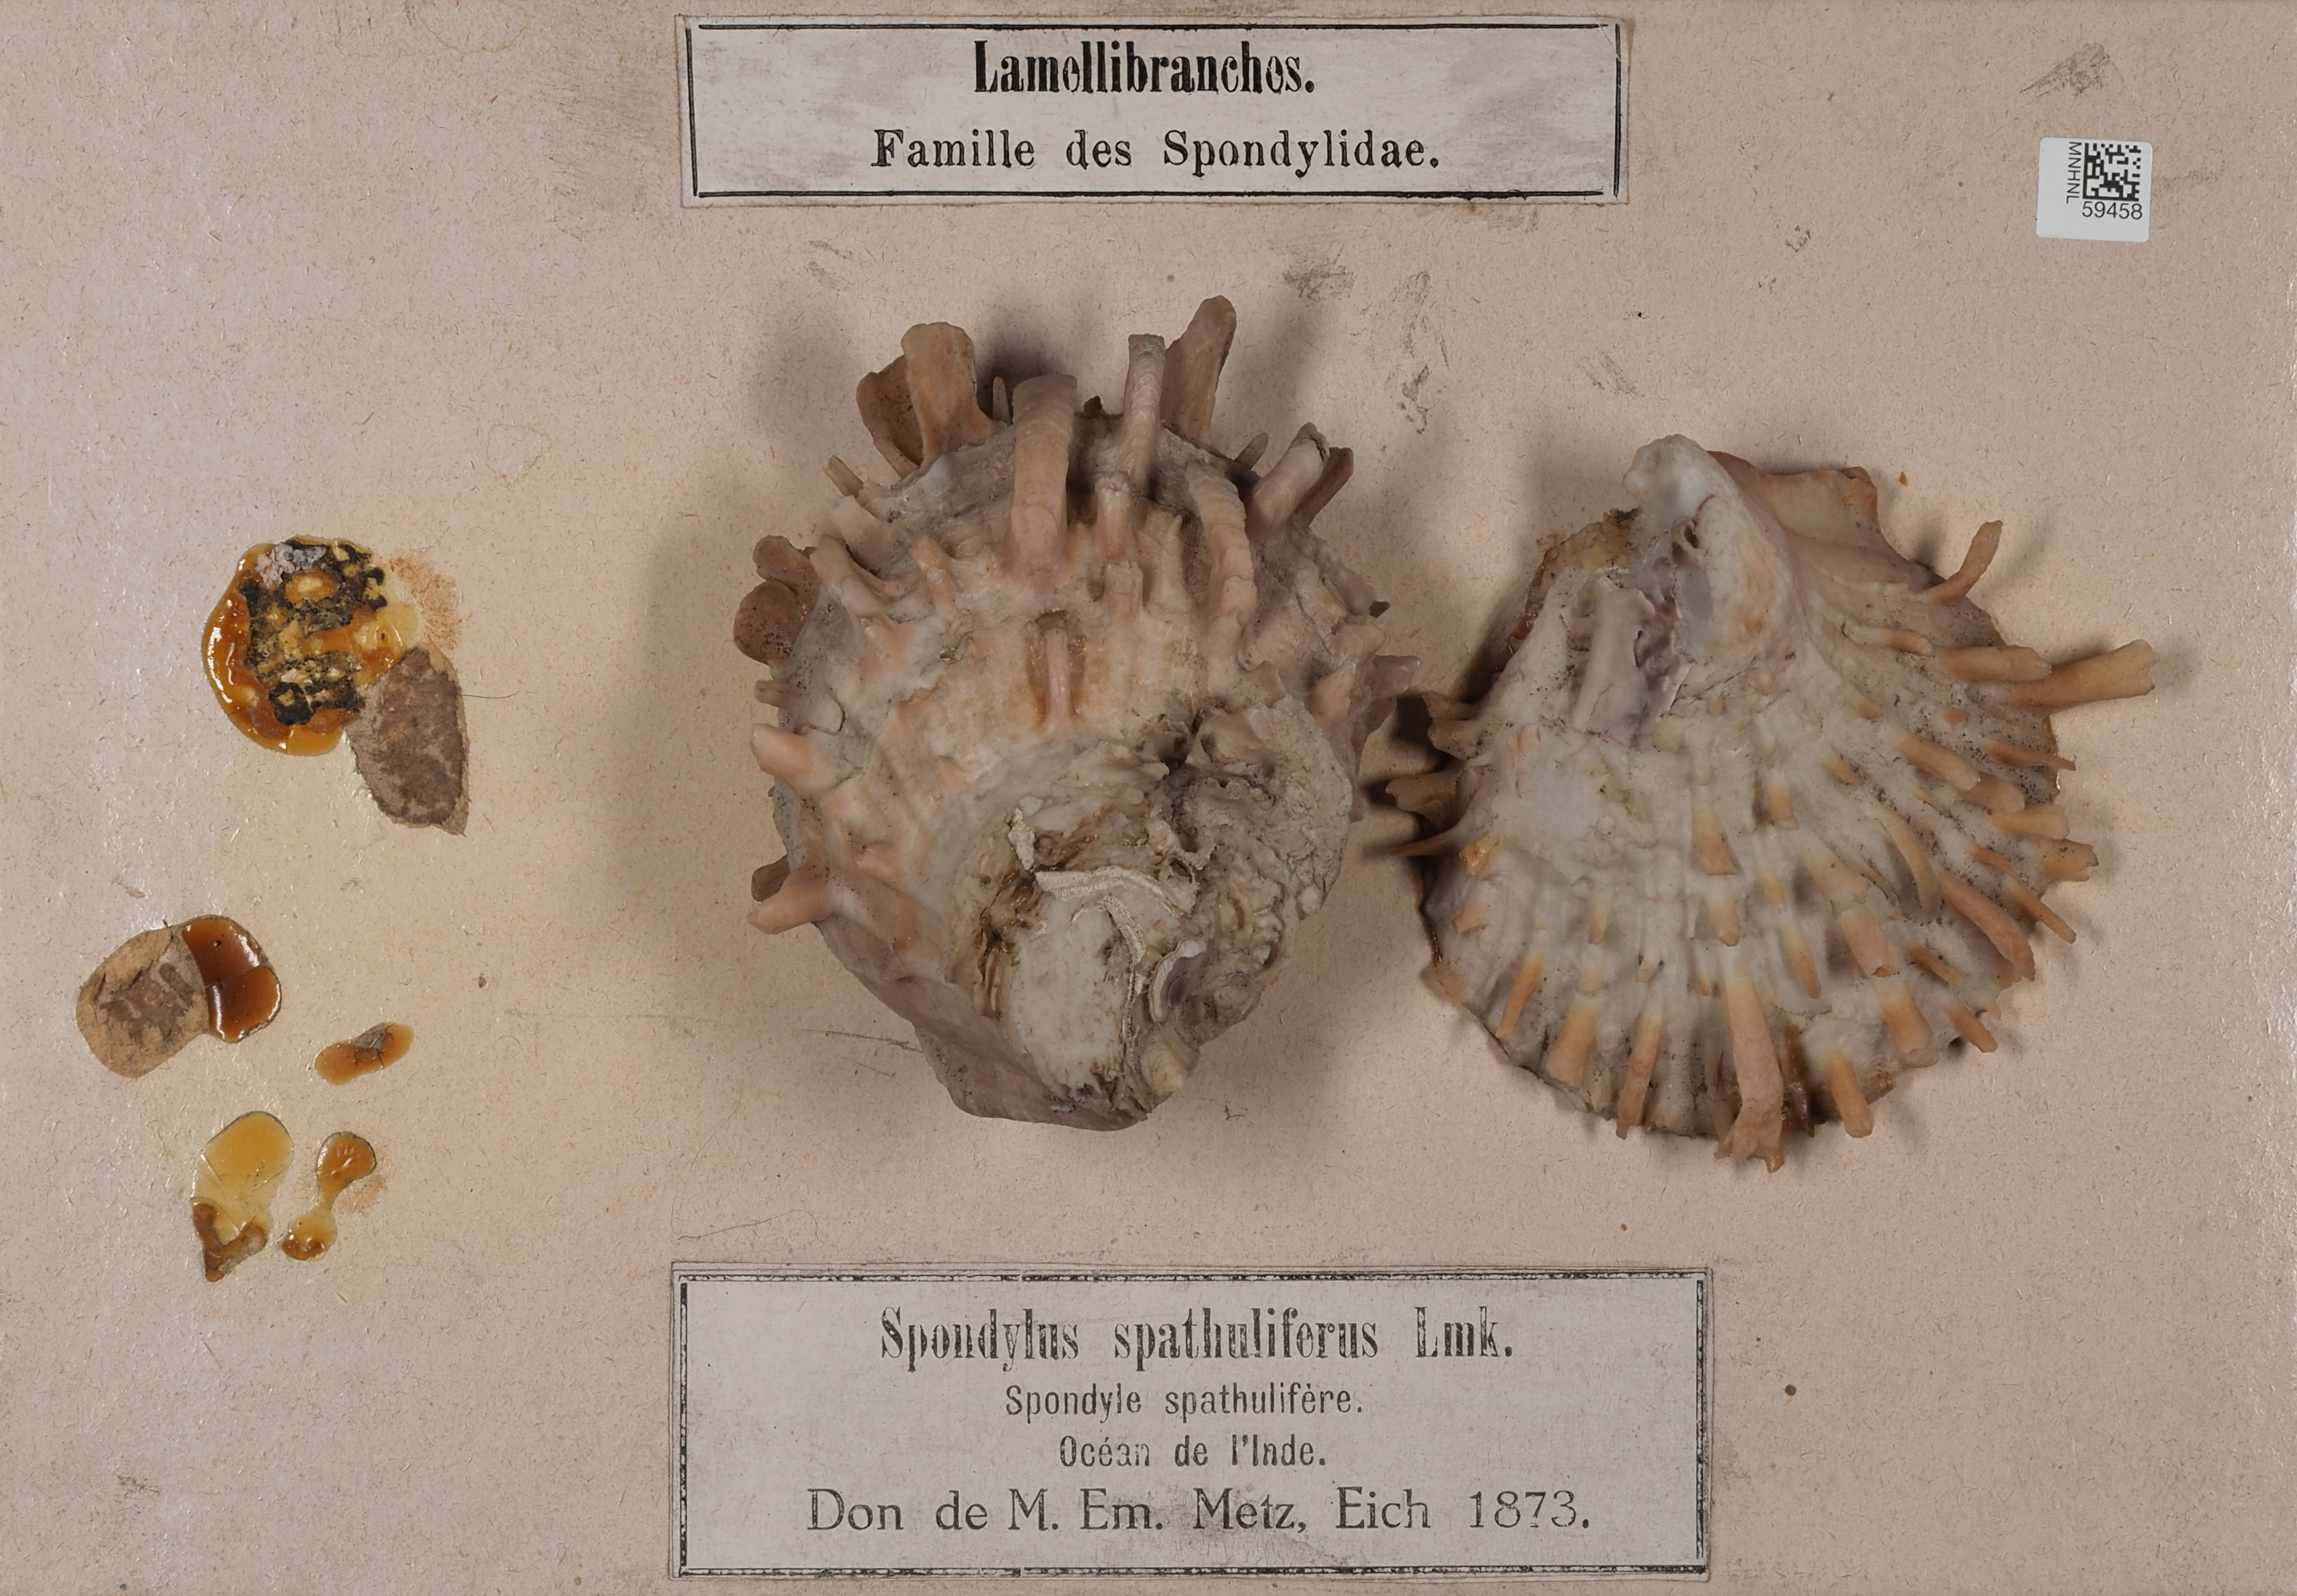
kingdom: Animalia
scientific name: Animalia
